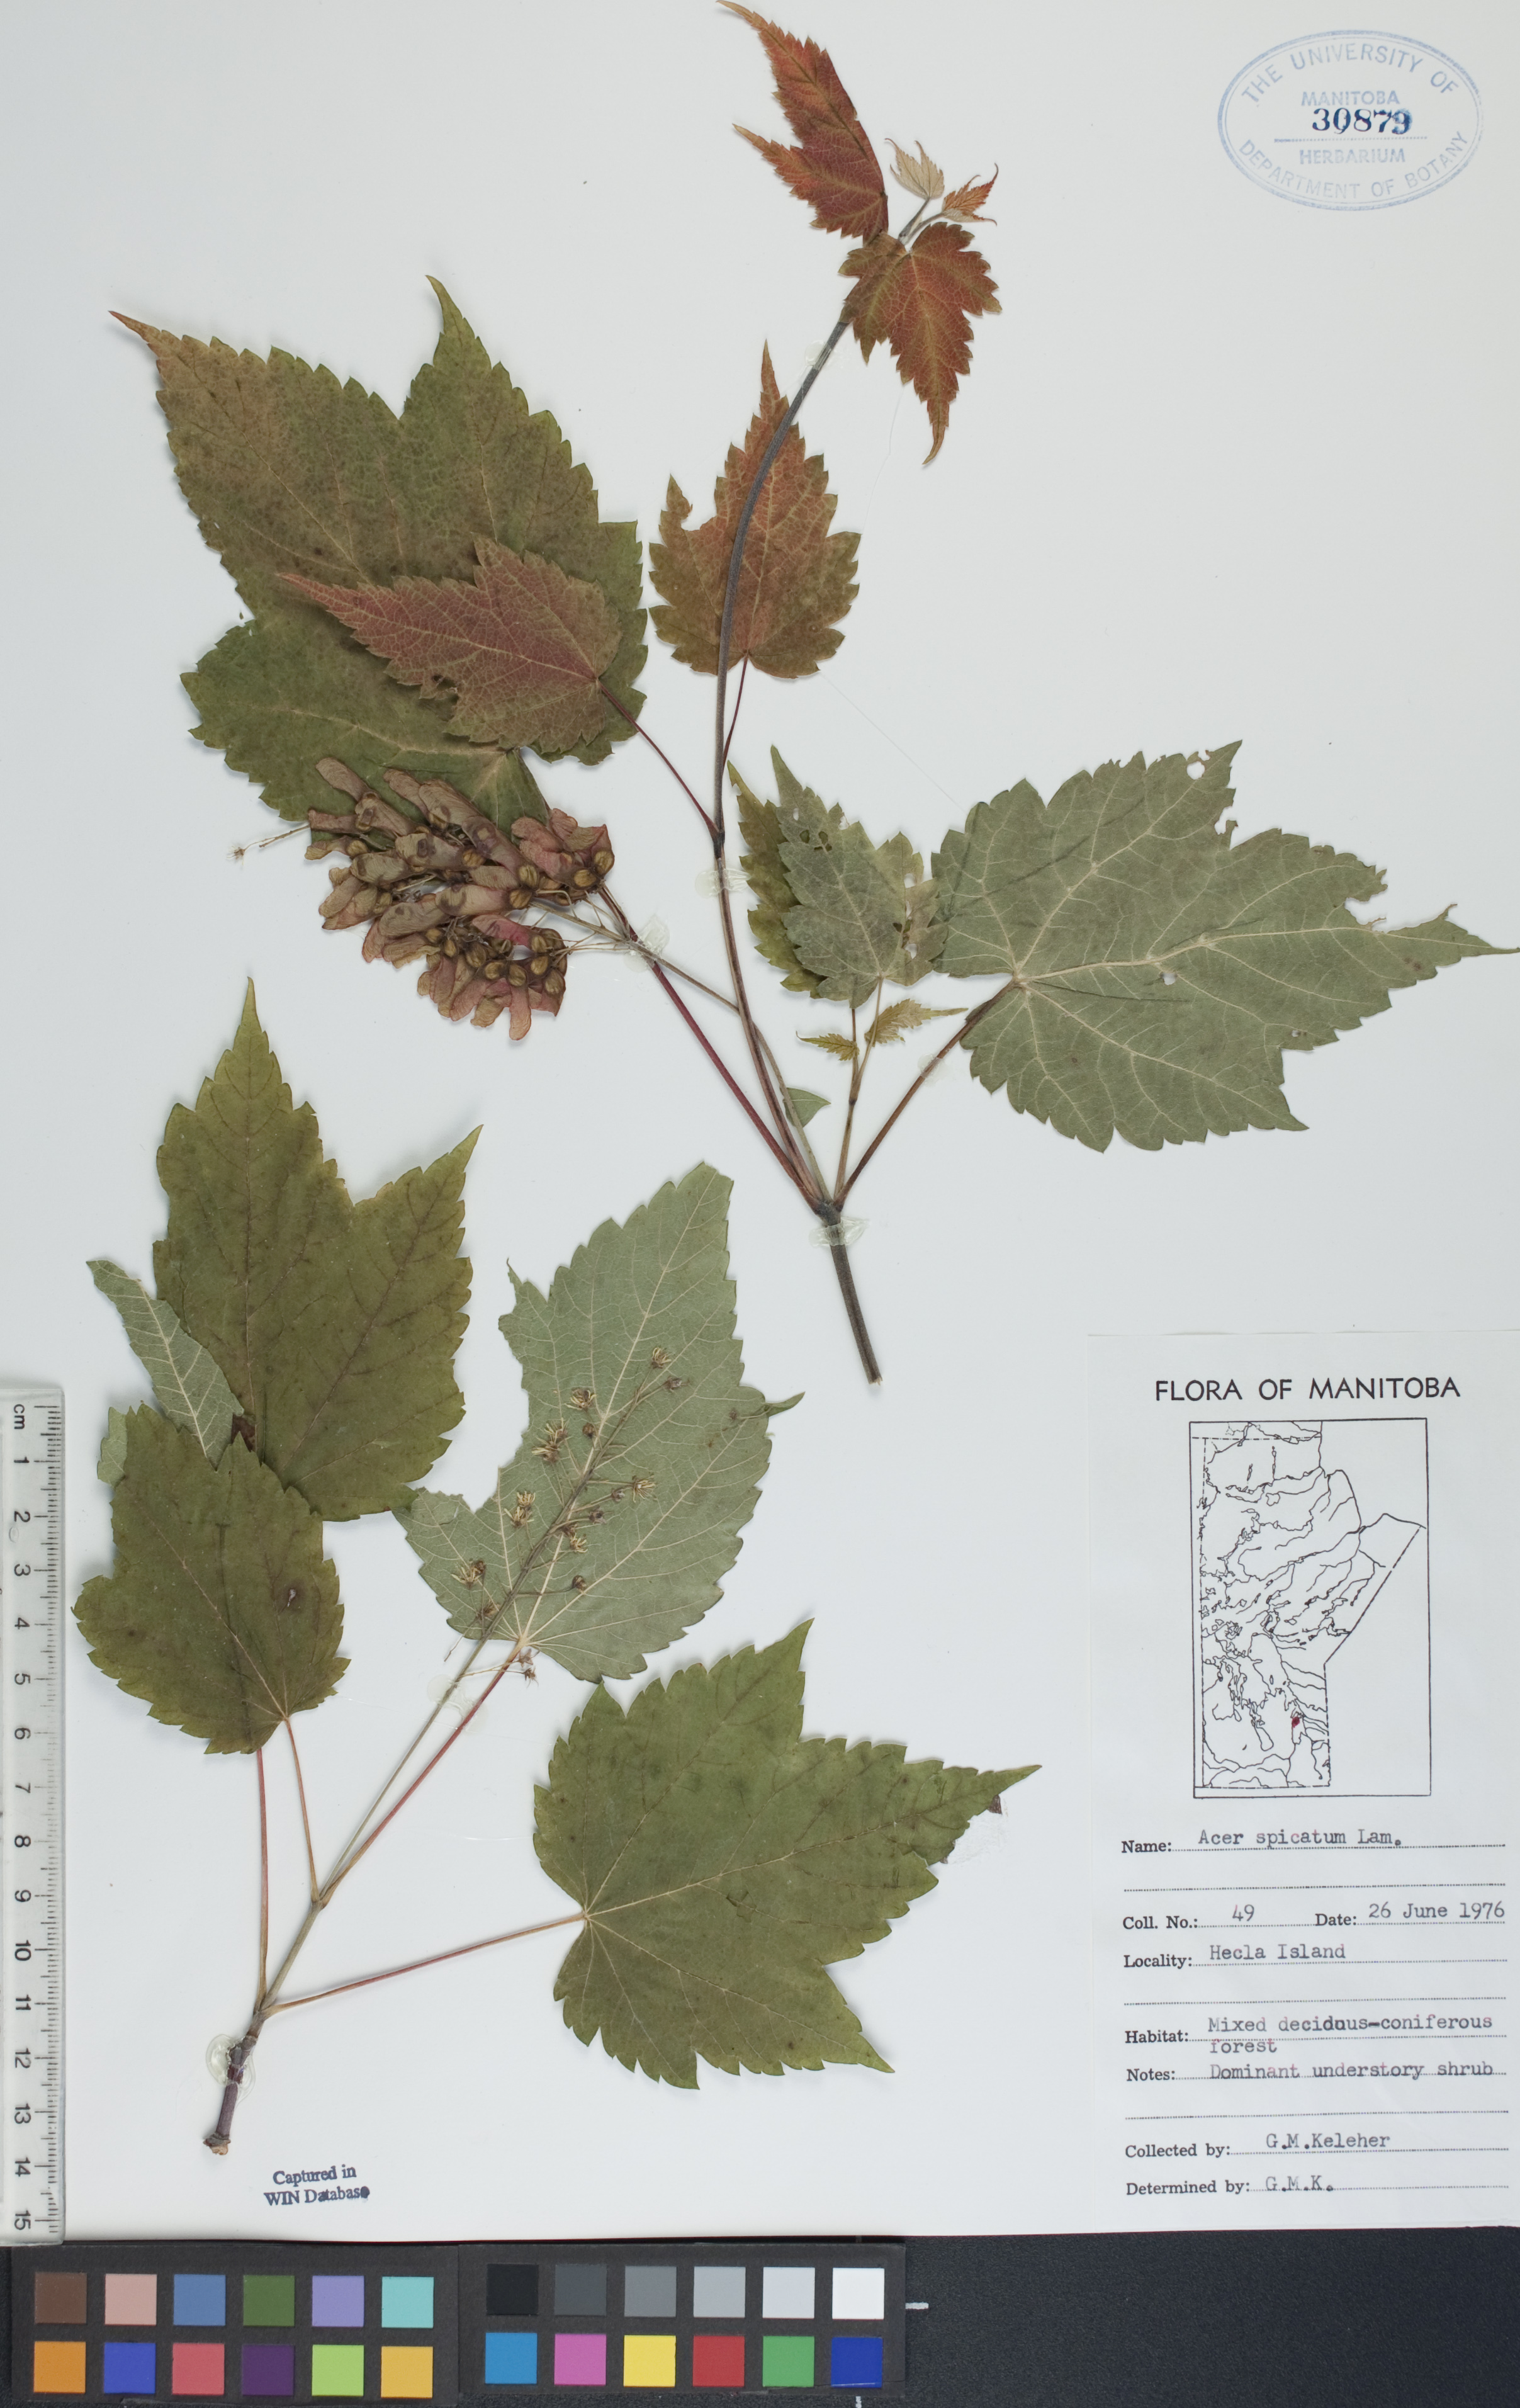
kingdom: Plantae
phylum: Tracheophyta
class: Magnoliopsida
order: Sapindales
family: Sapindaceae
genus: Acer
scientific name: Acer spicatum
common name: Mountain maple
